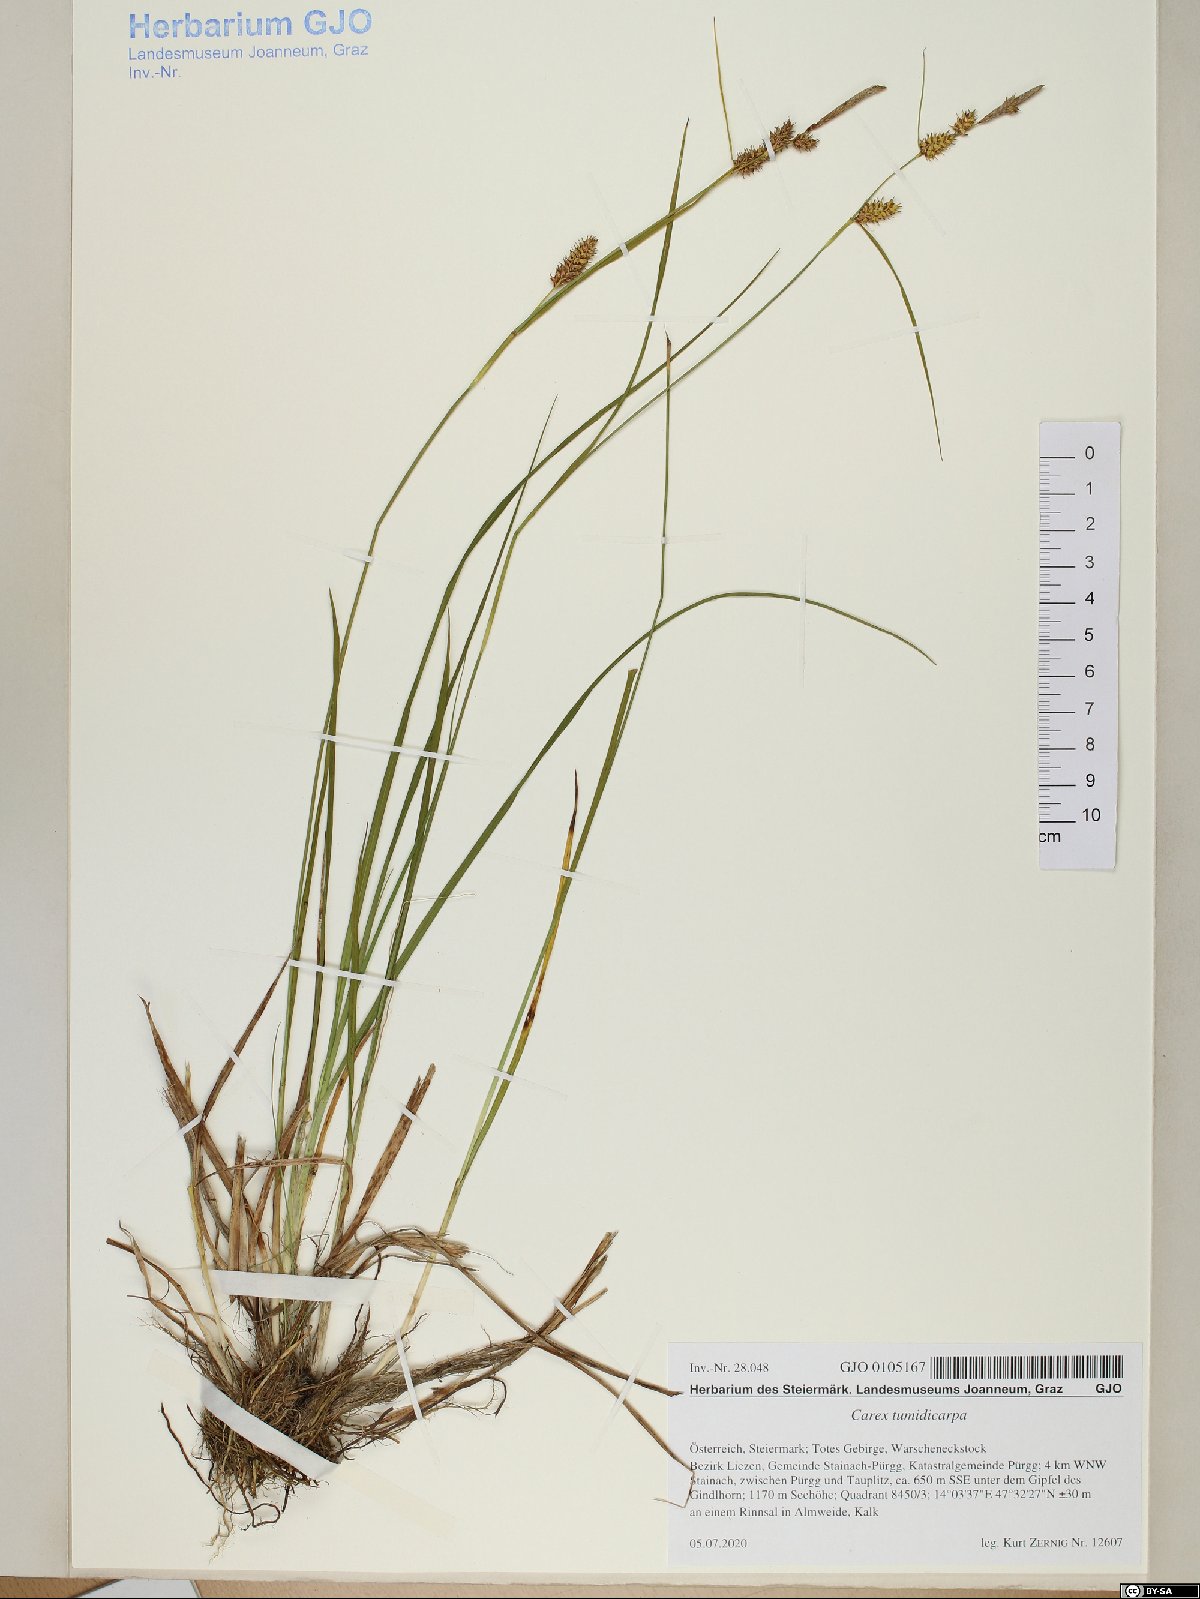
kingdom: Plantae
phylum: Tracheophyta
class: Liliopsida
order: Poales
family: Cyperaceae
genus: Carex
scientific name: Carex demissa
